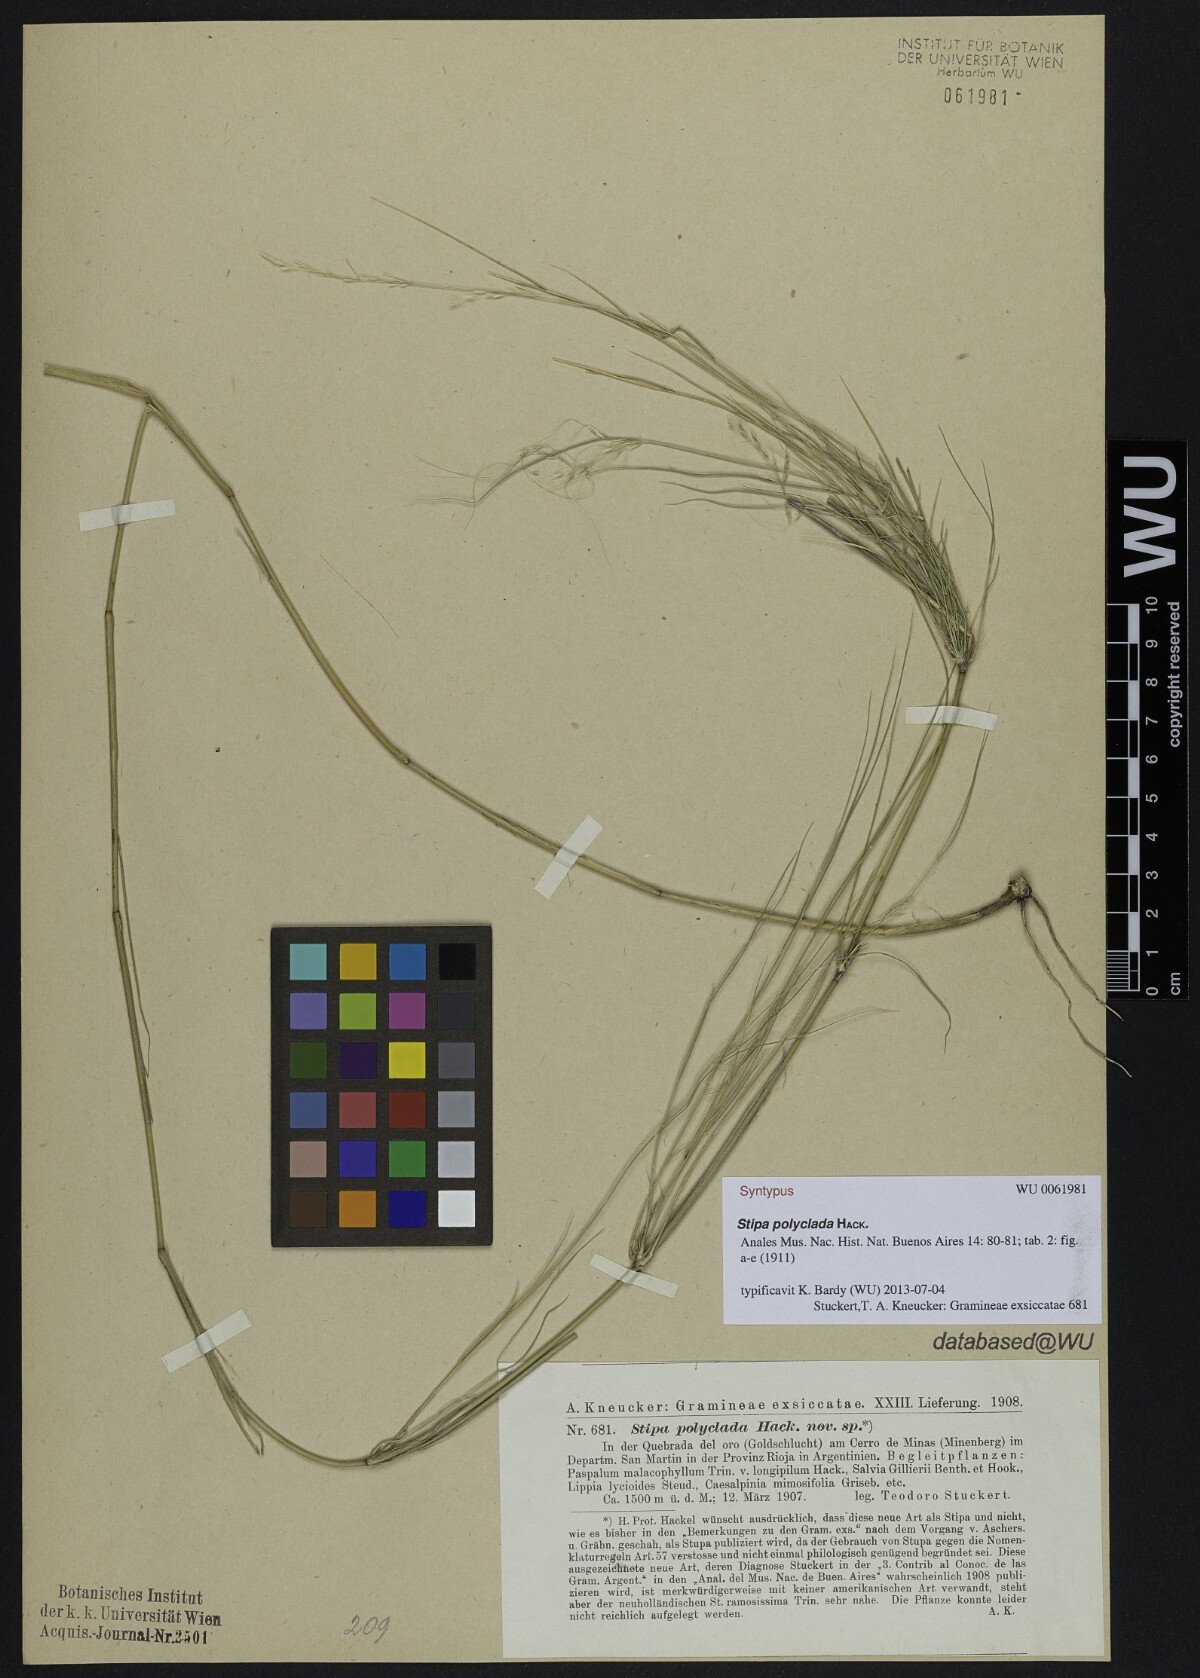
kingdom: Plantae
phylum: Tracheophyta
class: Liliopsida
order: Poales
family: Poaceae
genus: Stipa
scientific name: Stipa polyclada
